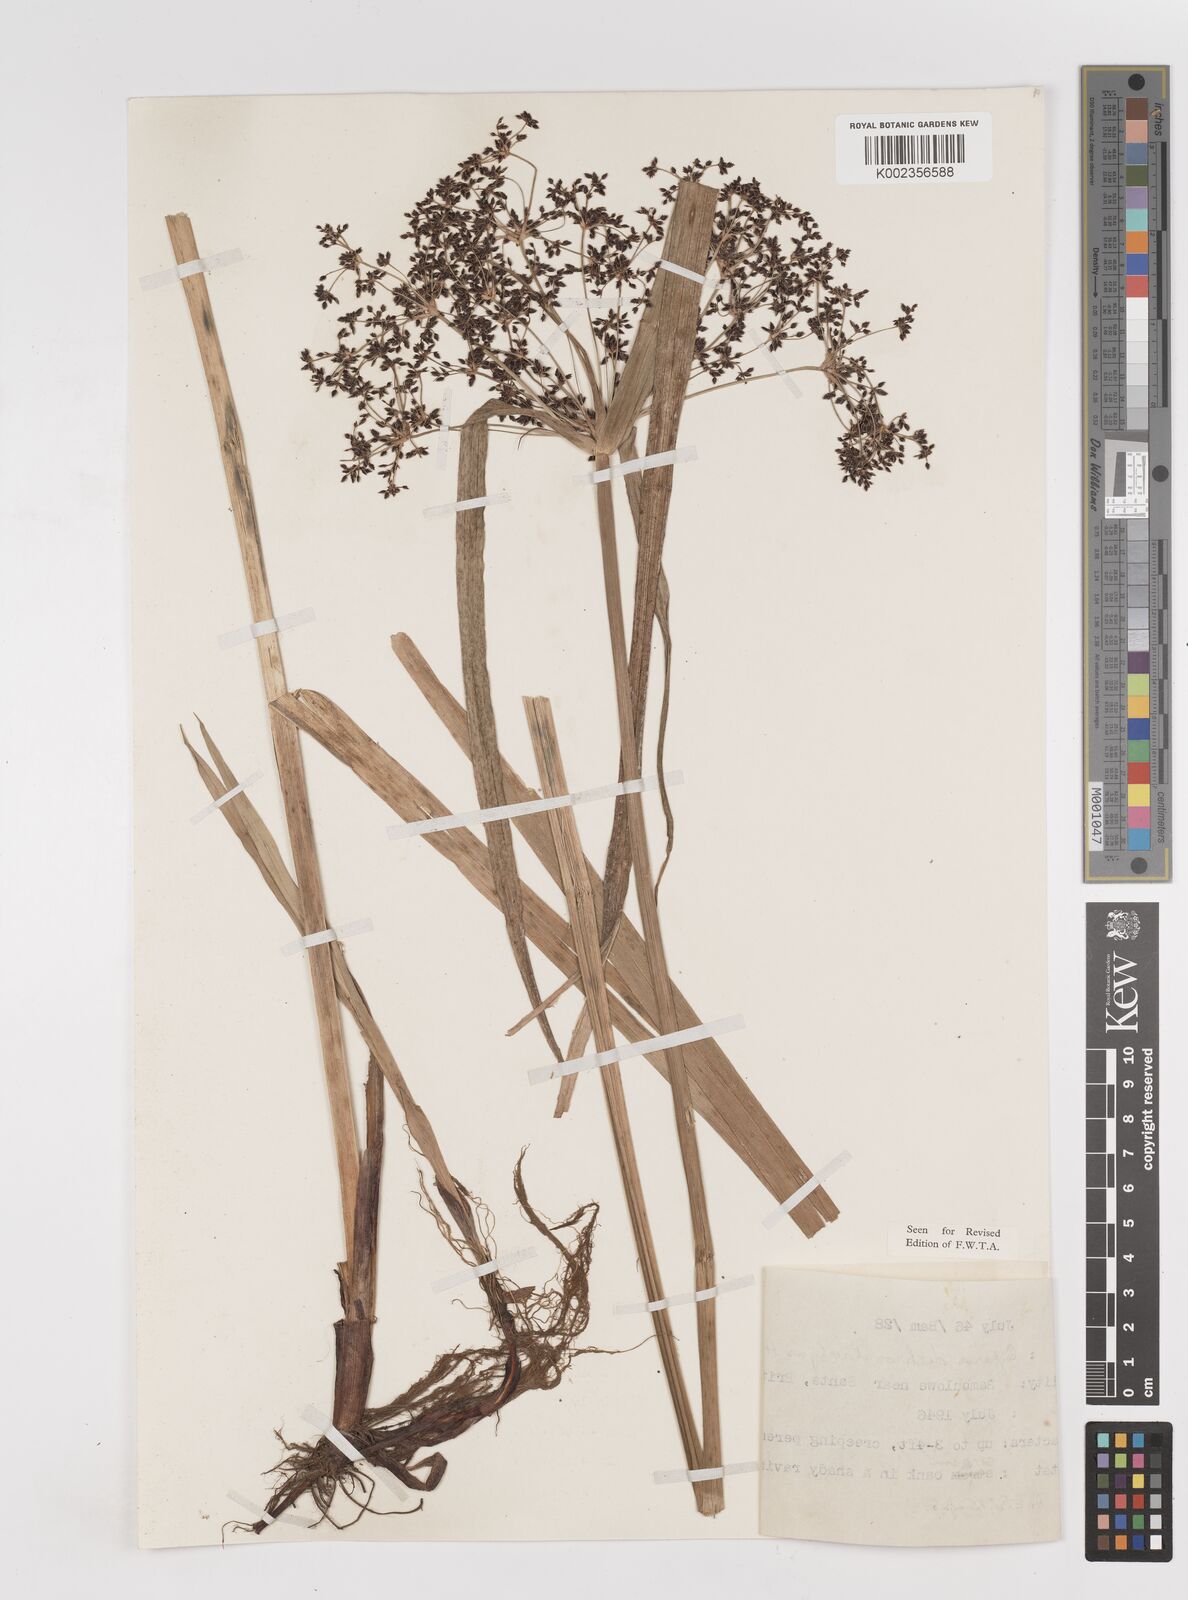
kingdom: Plantae
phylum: Tracheophyta
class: Liliopsida
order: Poales
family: Cyperaceae
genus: Cyperus
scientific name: Cyperus dichrostachyus
